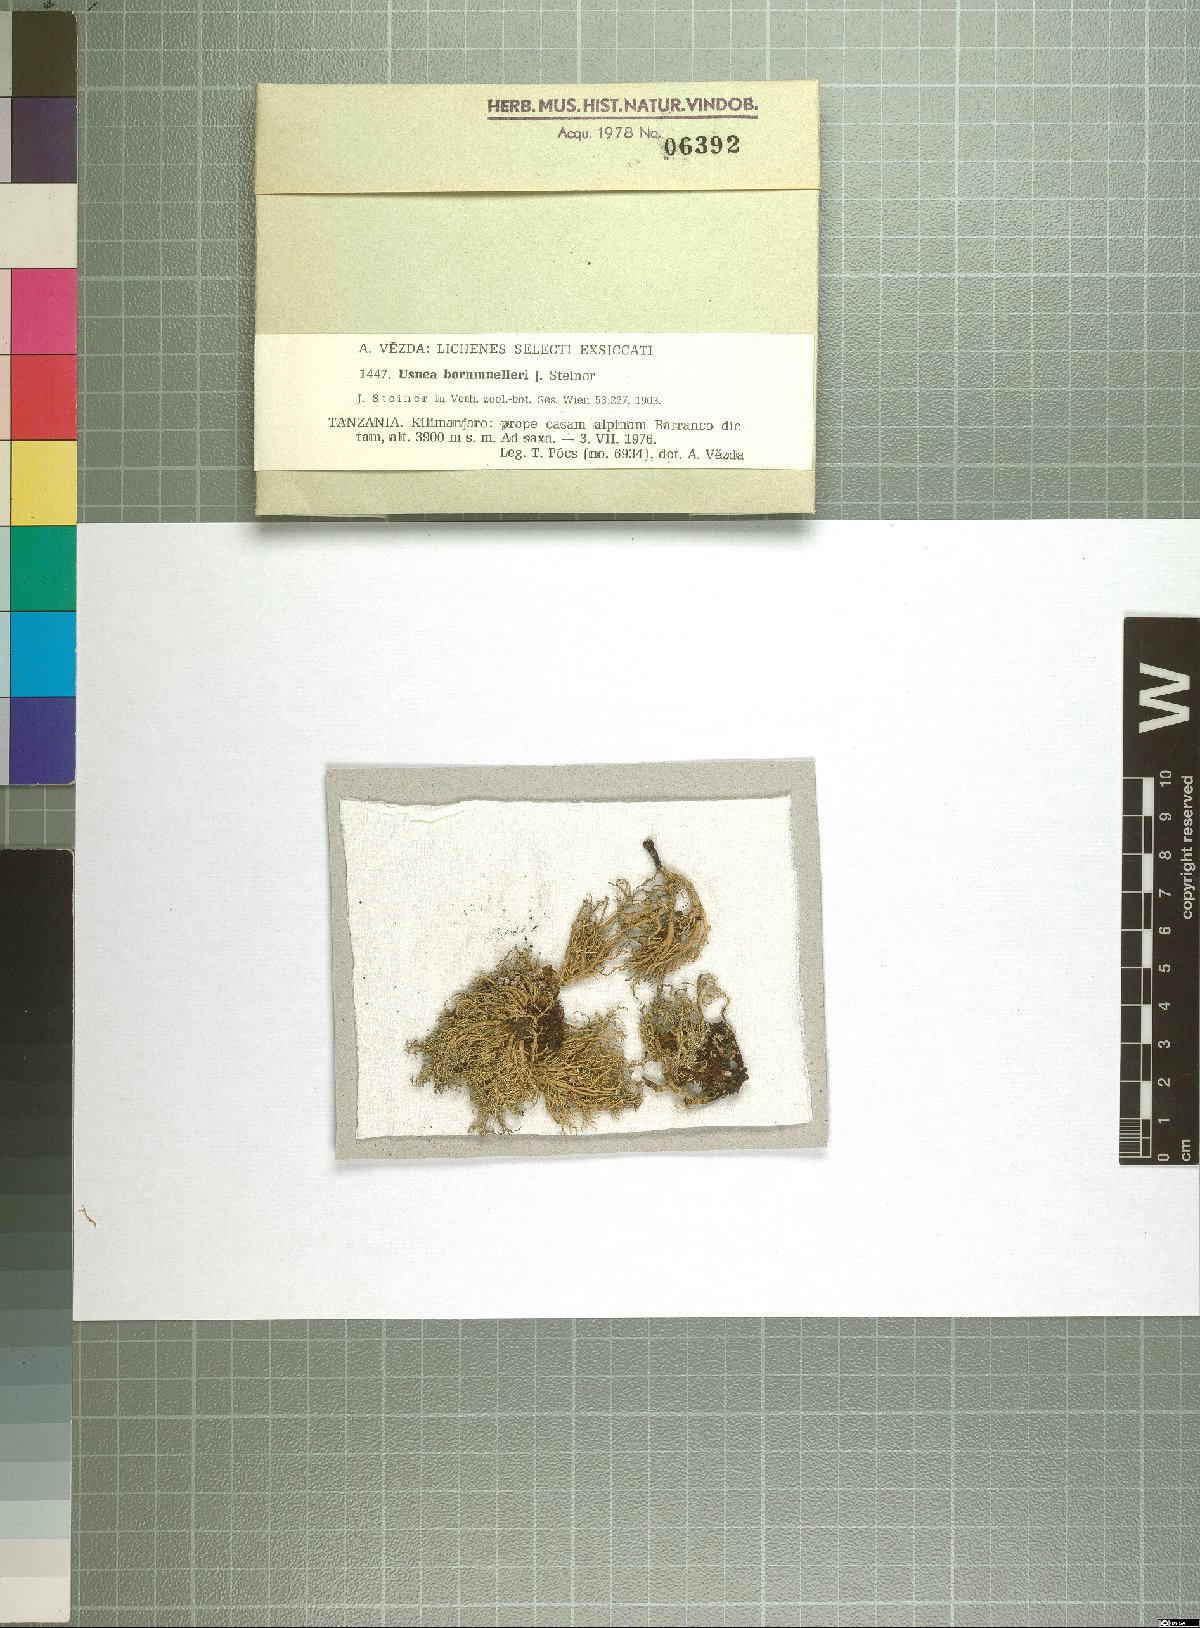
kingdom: Fungi
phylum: Ascomycota
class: Lecanoromycetes
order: Lecanorales
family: Parmeliaceae
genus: Usnea
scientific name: Usnea
